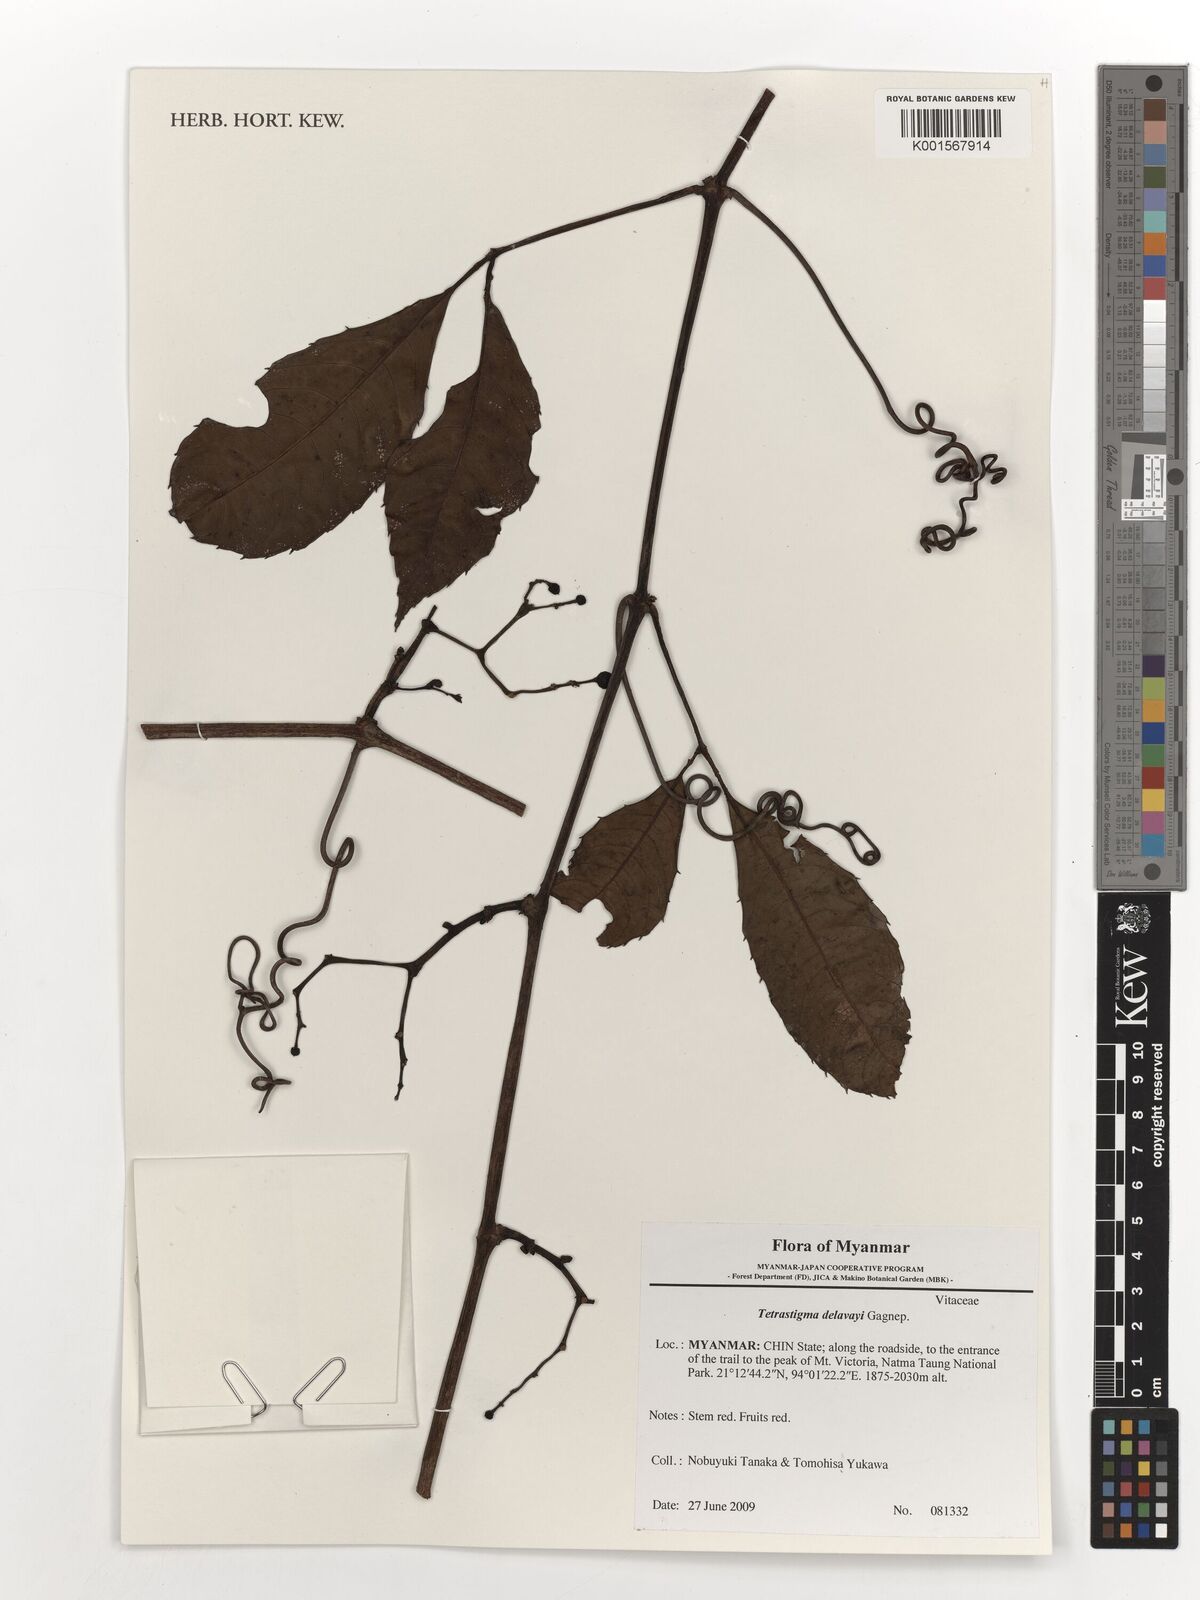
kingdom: Plantae
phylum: Tracheophyta
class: Magnoliopsida
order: Vitales
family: Vitaceae
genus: Tetrastigma
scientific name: Tetrastigma delavayi
